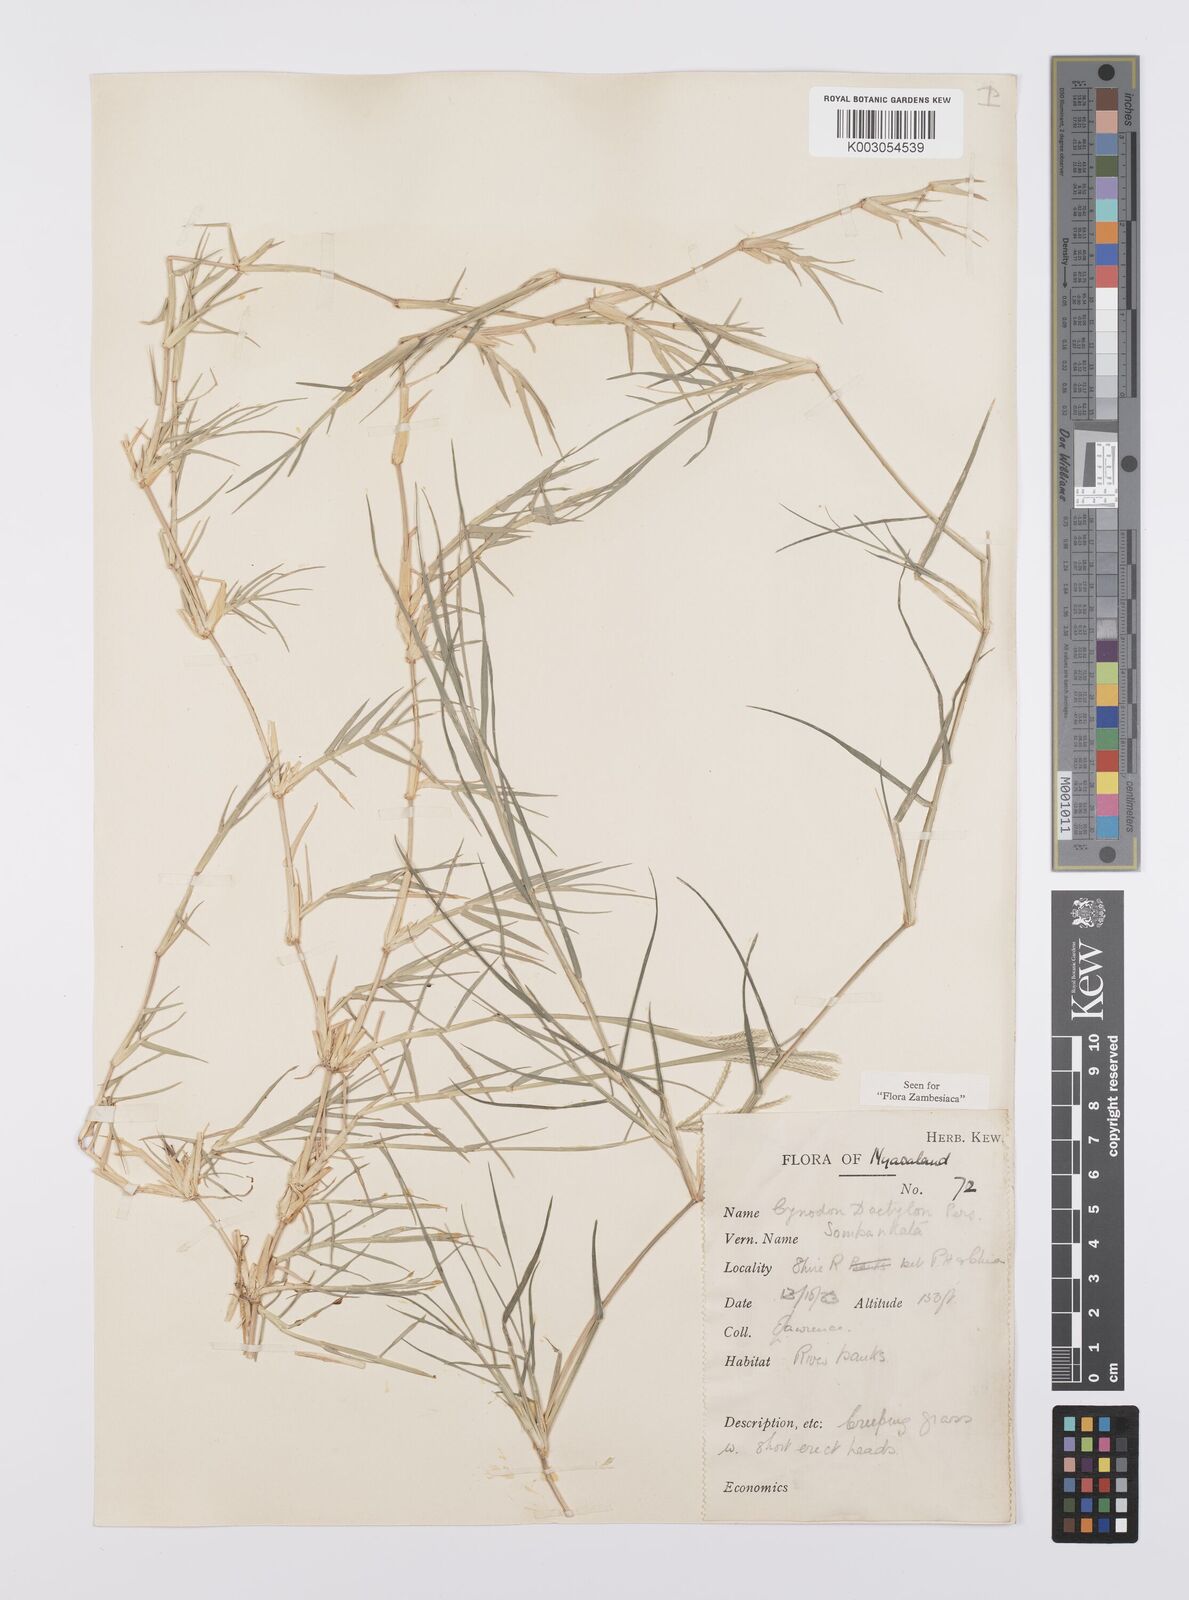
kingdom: Plantae
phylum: Tracheophyta
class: Liliopsida
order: Poales
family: Poaceae
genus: Cynodon
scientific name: Cynodon dactylon
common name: Bermuda grass
